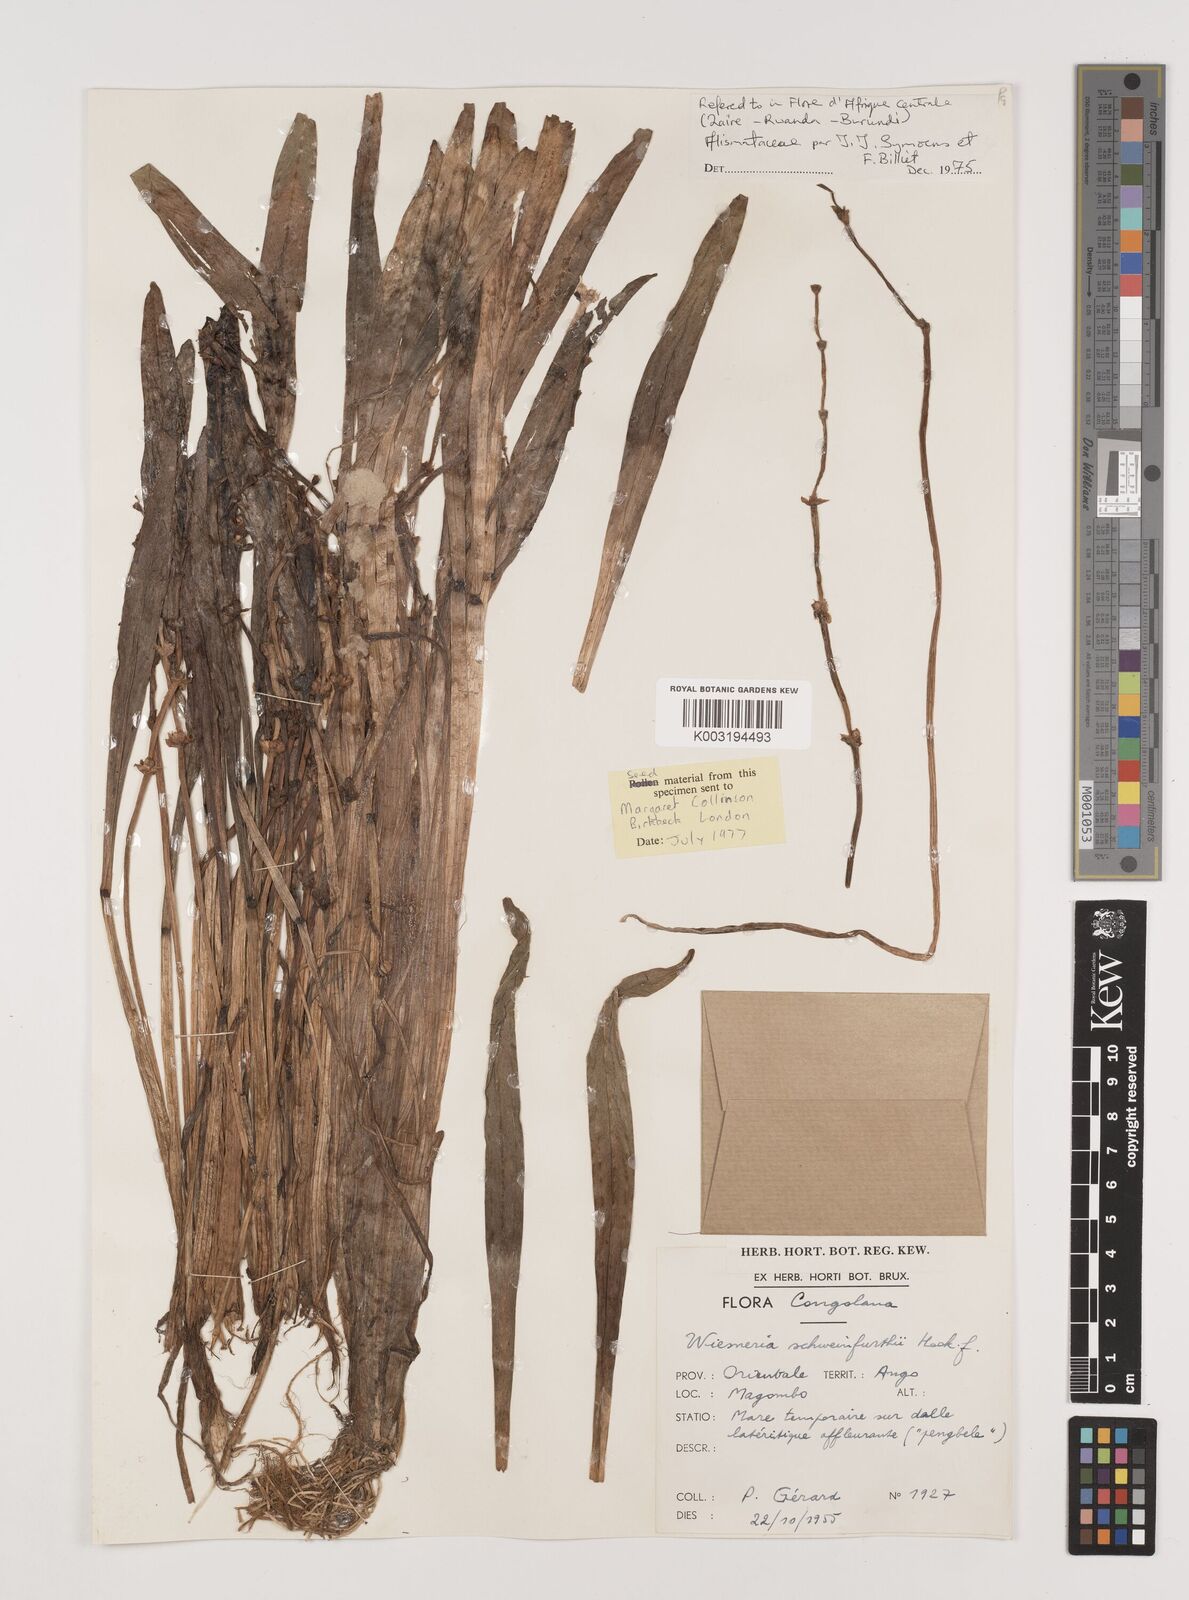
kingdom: Plantae
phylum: Tracheophyta
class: Liliopsida
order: Alismatales
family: Alismataceae
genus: Wiesneria
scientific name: Wiesneria schweinfurthii
